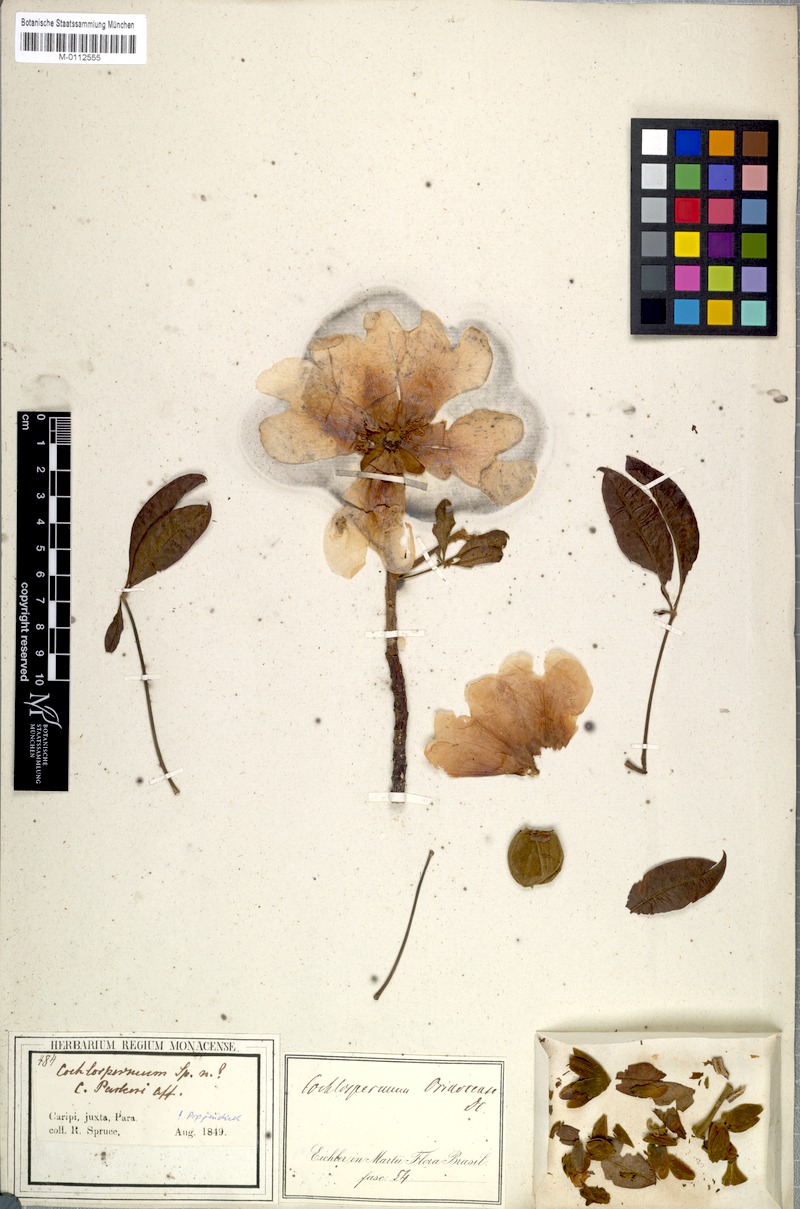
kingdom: Plantae
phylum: Tracheophyta
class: Magnoliopsida
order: Malvales
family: Cochlospermaceae
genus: Cochlospermum
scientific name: Cochlospermum orinocense
